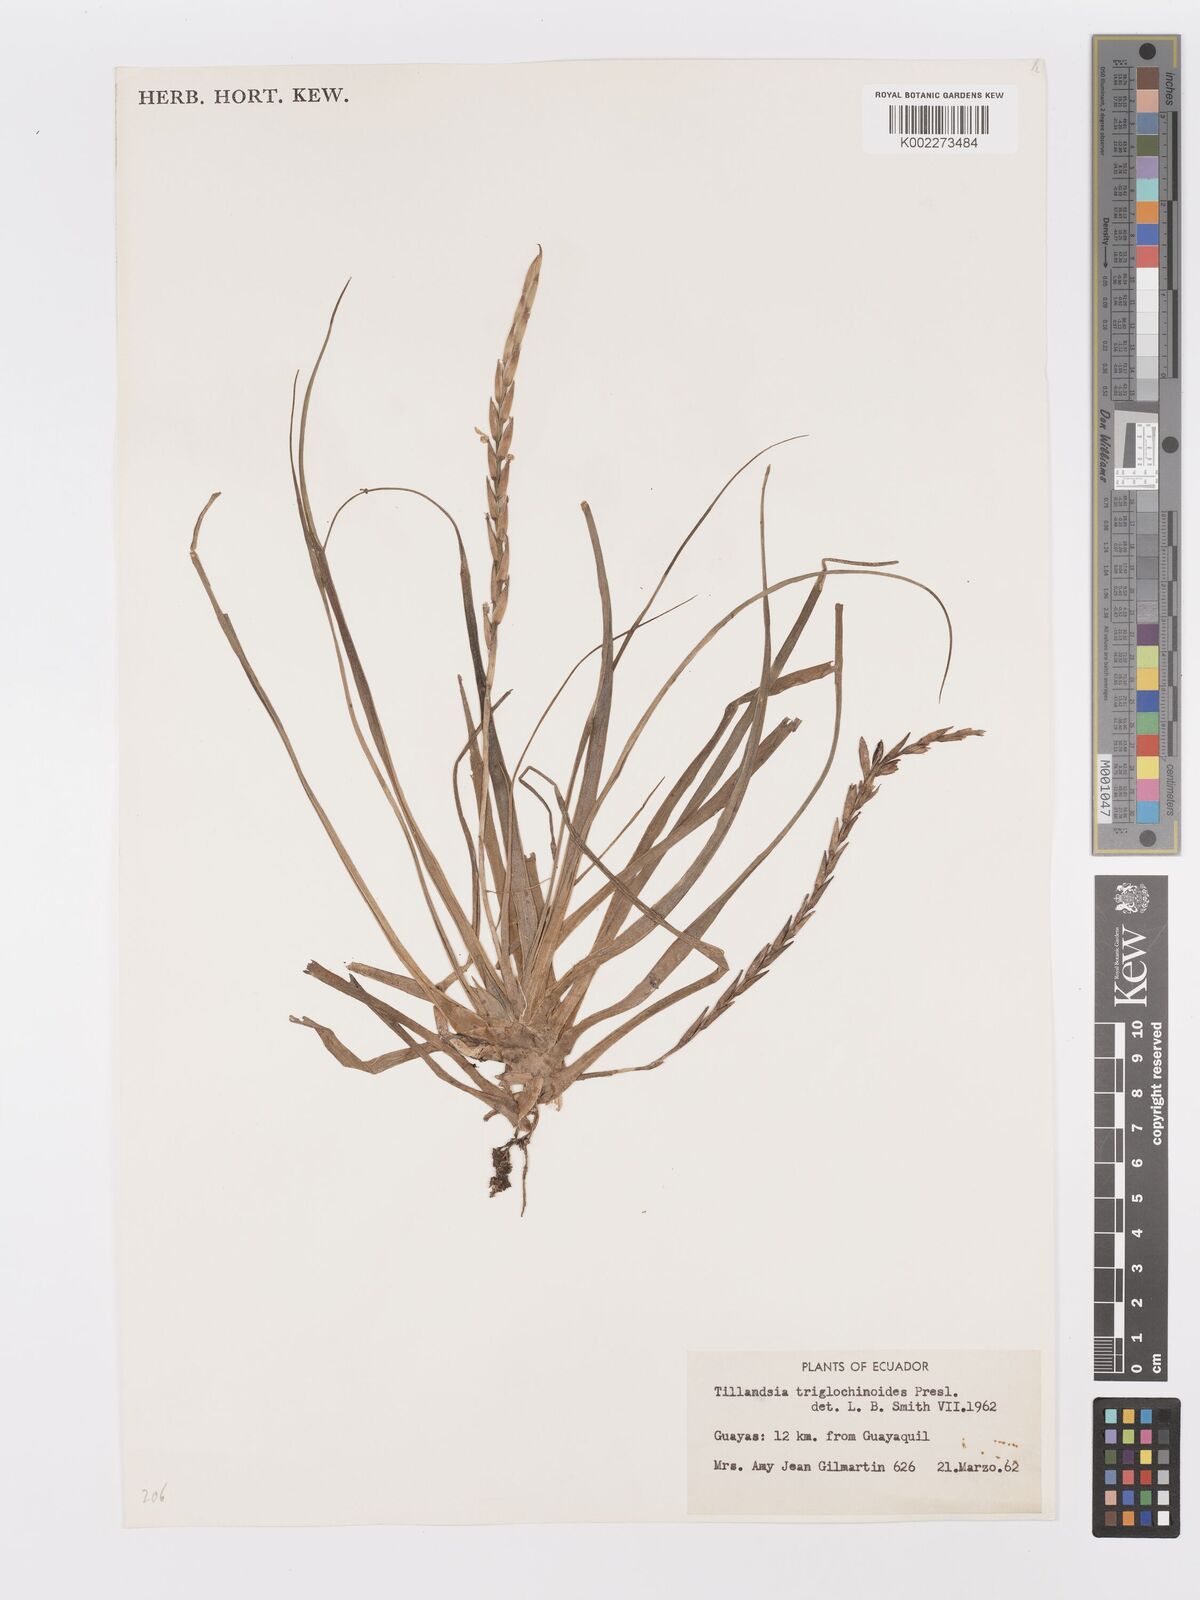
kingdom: Plantae
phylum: Tracheophyta
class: Liliopsida
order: Poales
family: Bromeliaceae
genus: Lemeltonia
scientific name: Lemeltonia triglochinoides
